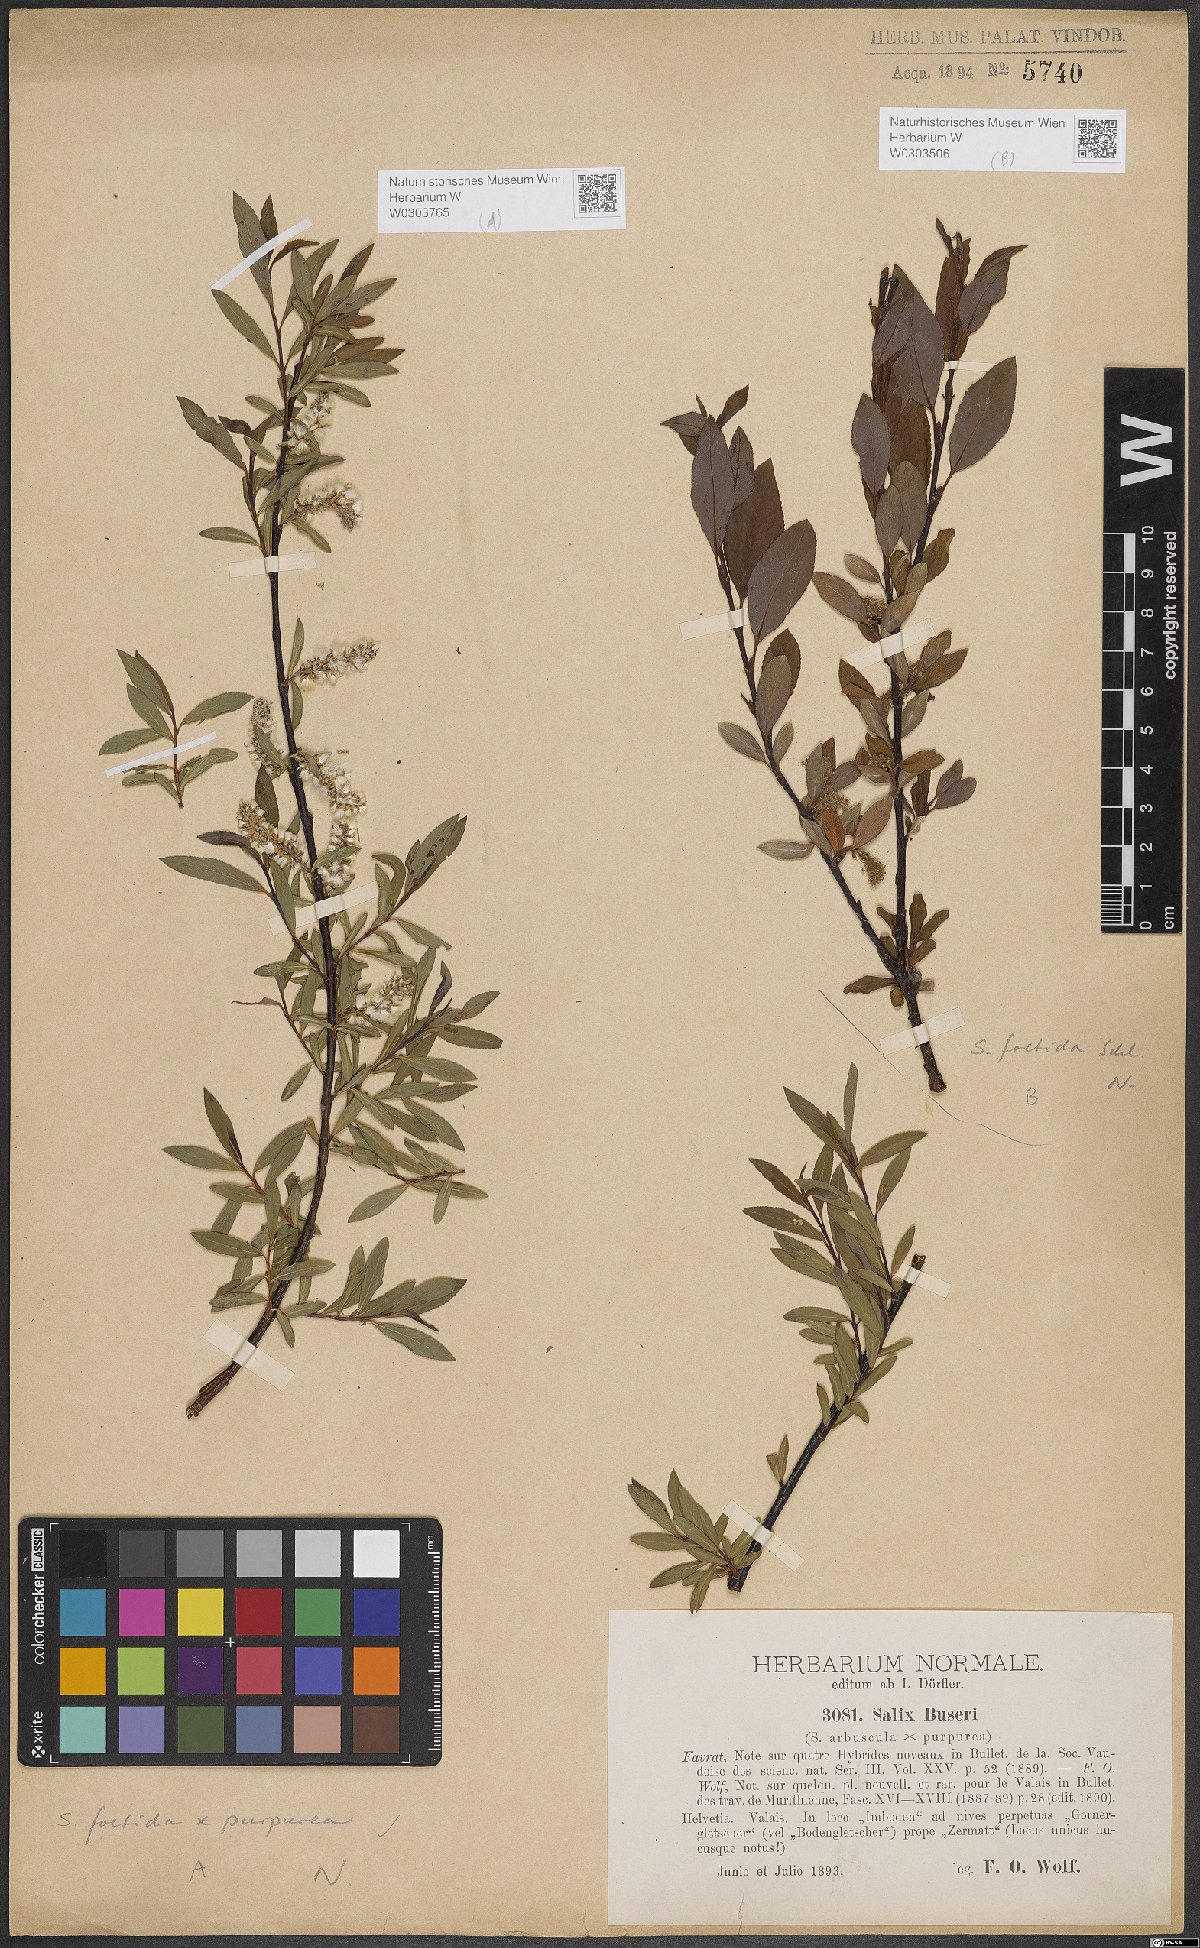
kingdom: Plantae
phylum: Tracheophyta
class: Magnoliopsida
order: Malpighiales
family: Salicaceae
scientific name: Salicaceae
